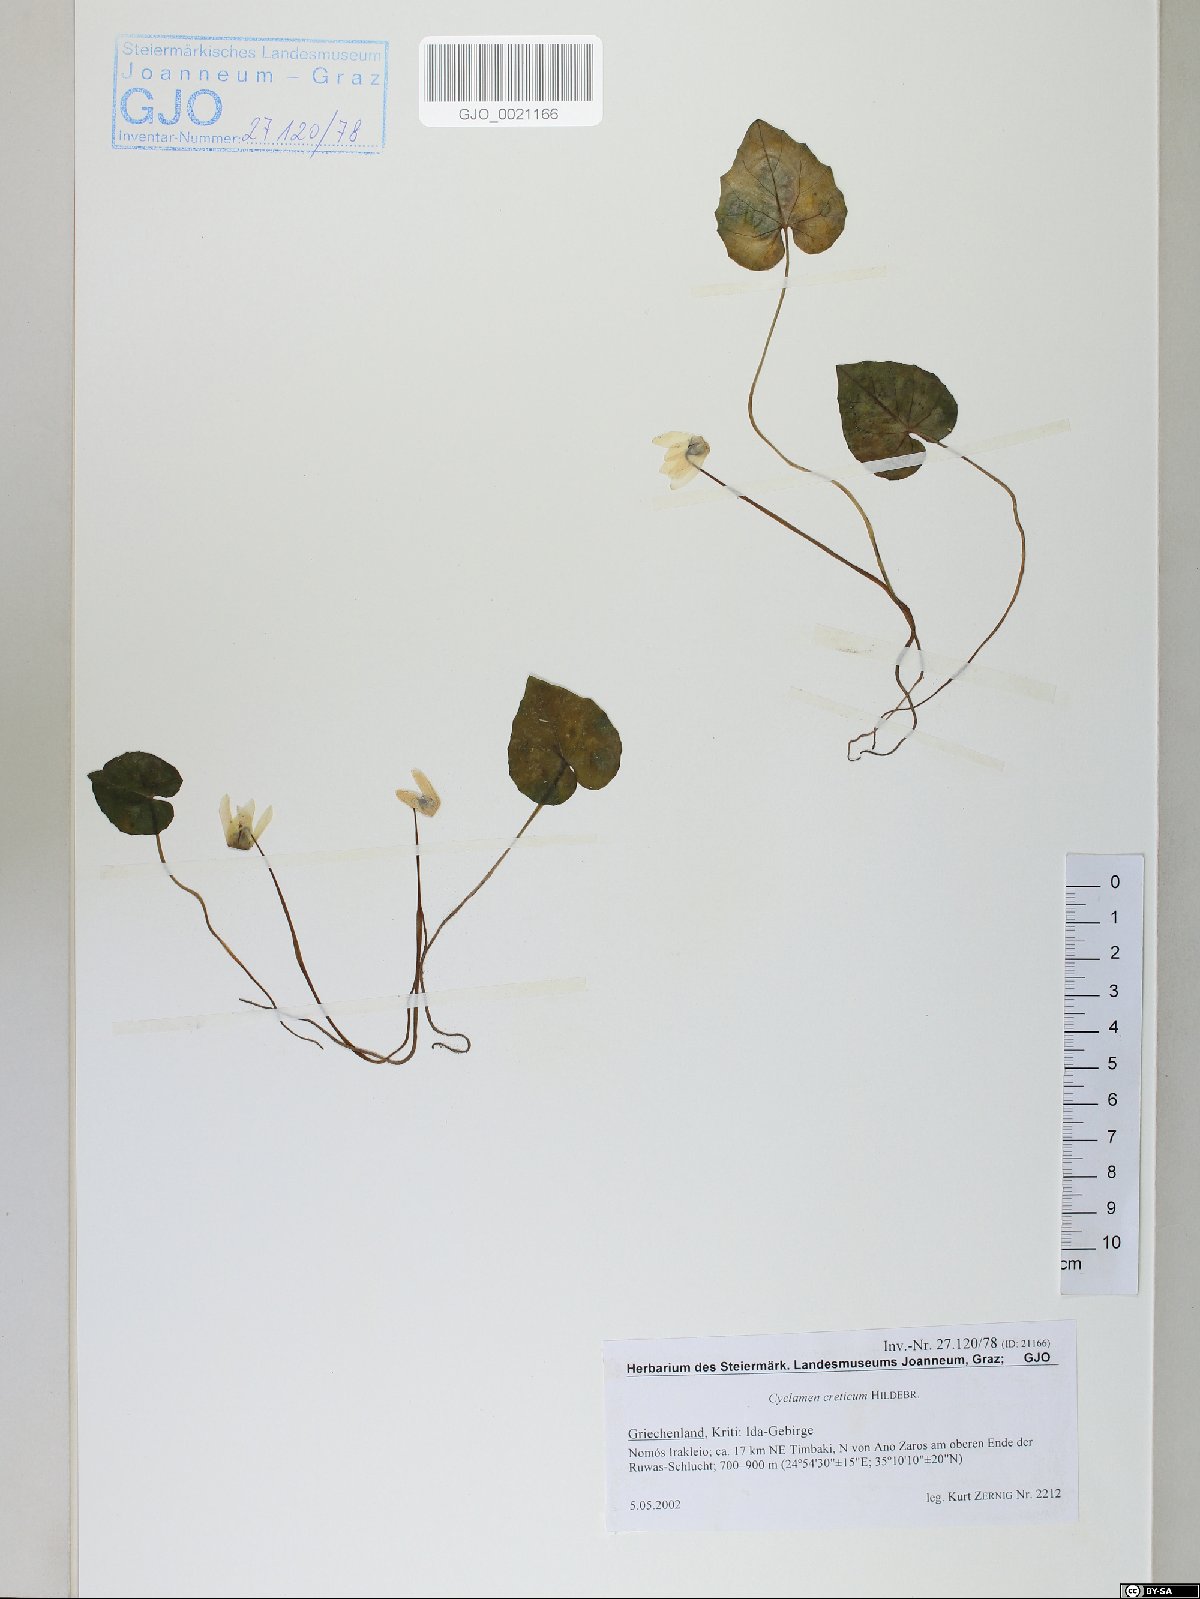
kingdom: Plantae
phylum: Tracheophyta
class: Magnoliopsida
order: Ericales
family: Primulaceae
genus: Cyclamen
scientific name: Cyclamen creticum
